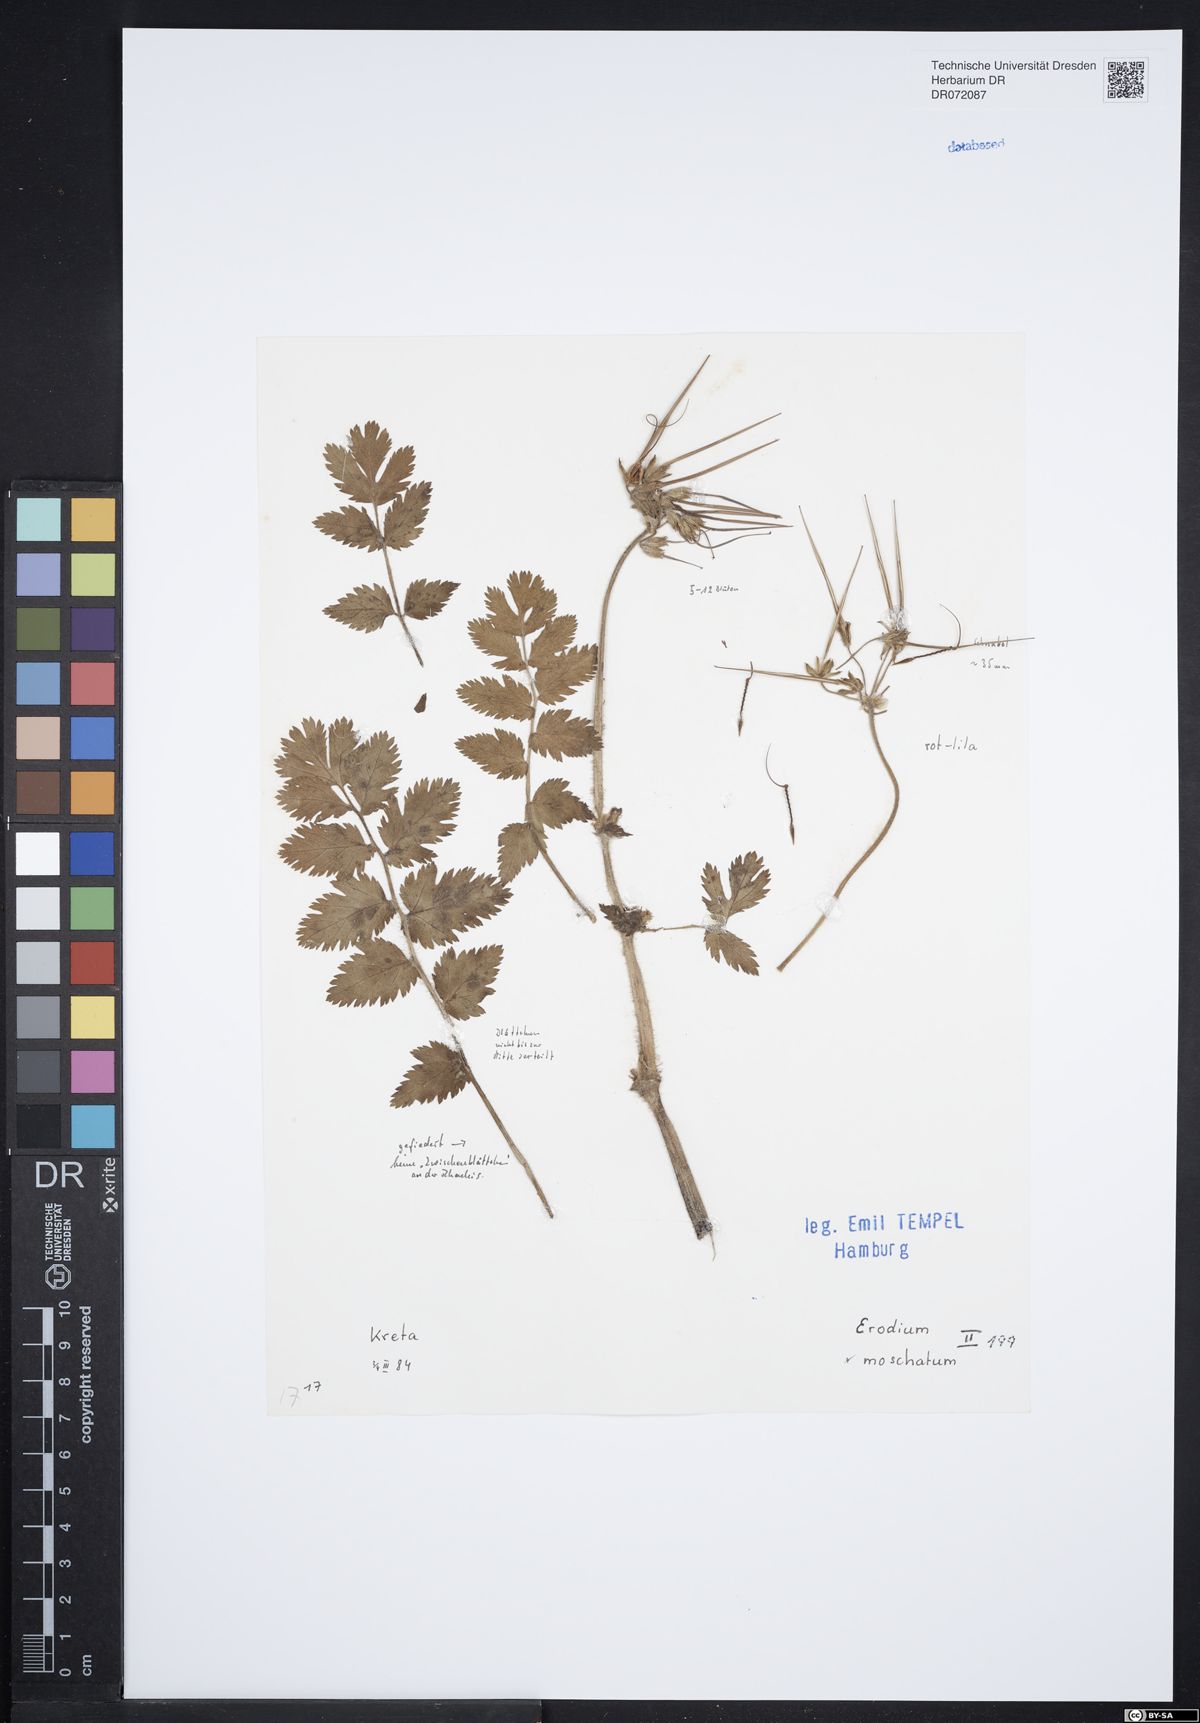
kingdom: Plantae
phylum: Tracheophyta
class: Magnoliopsida
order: Geraniales
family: Geraniaceae
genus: Erodium
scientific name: Erodium moschatum
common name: Musk stork's-bill
